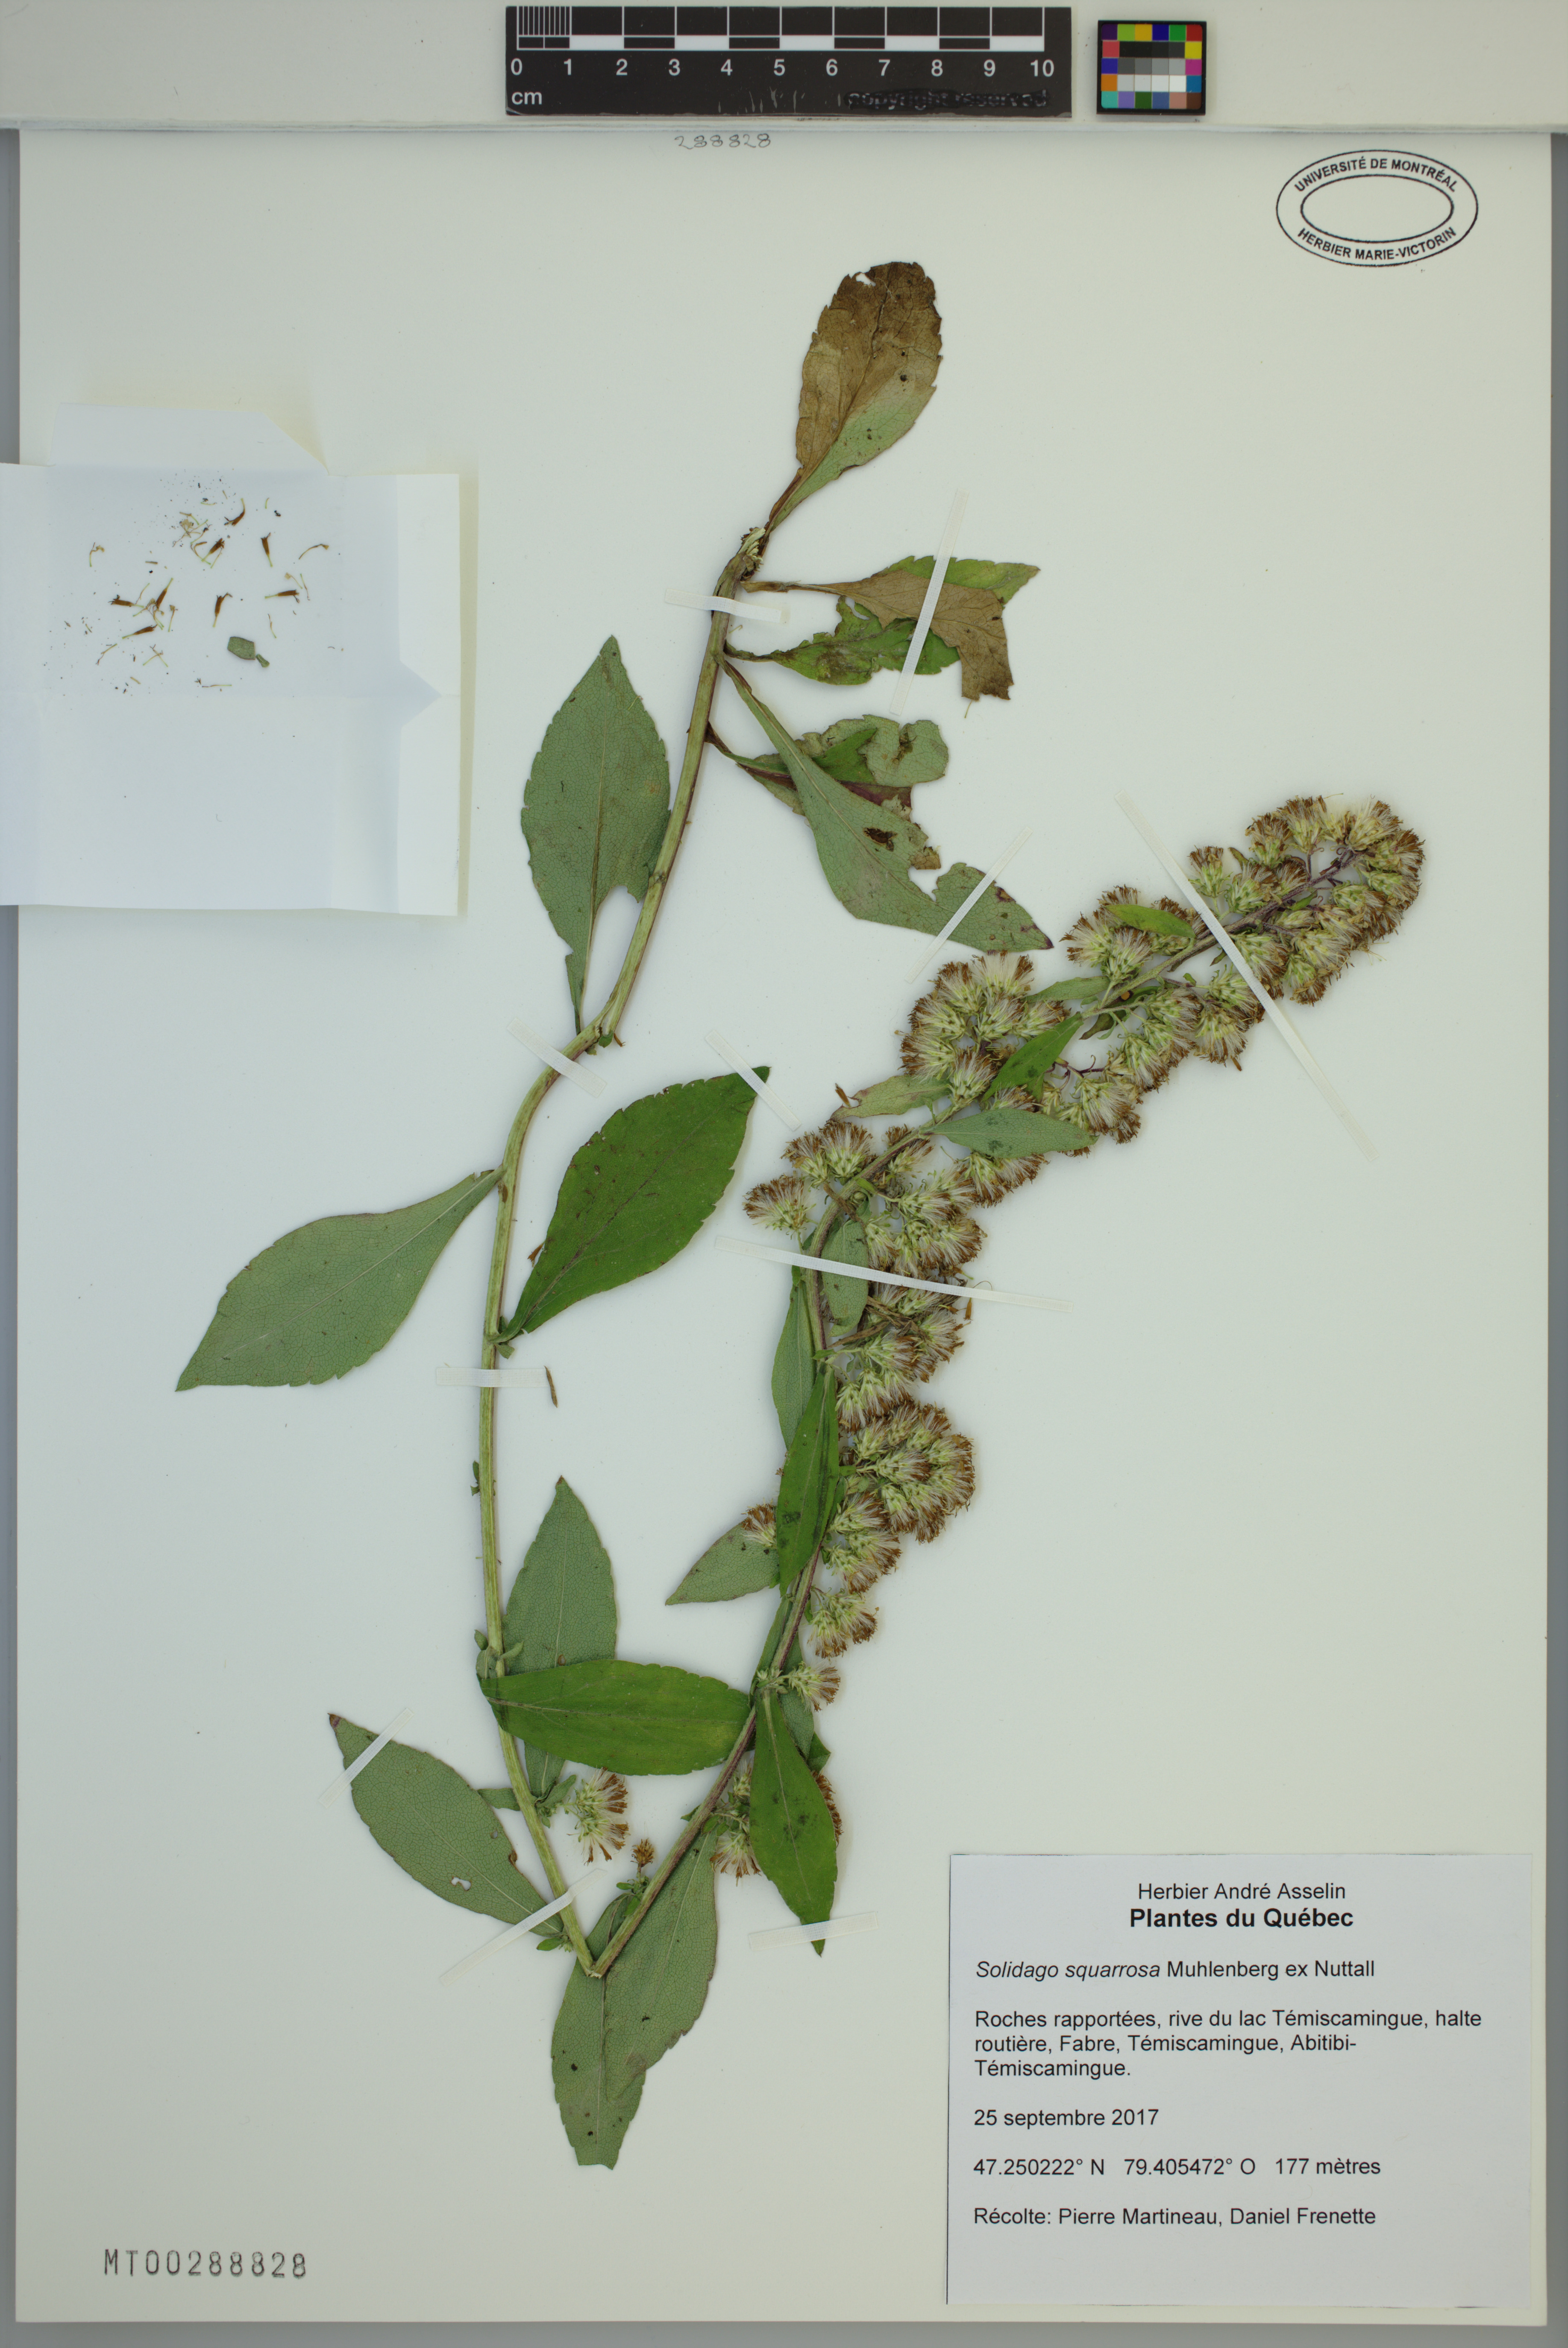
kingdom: Plantae
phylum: Tracheophyta
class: Magnoliopsida
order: Asterales
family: Asteraceae
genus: Solidago
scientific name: Solidago petiolaris
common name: Downy ragged goldenrod
